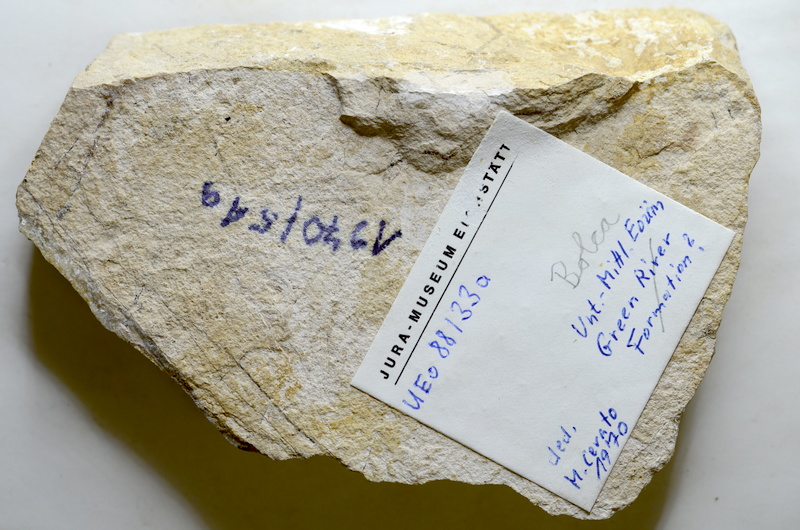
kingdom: Animalia
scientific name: Animalia
